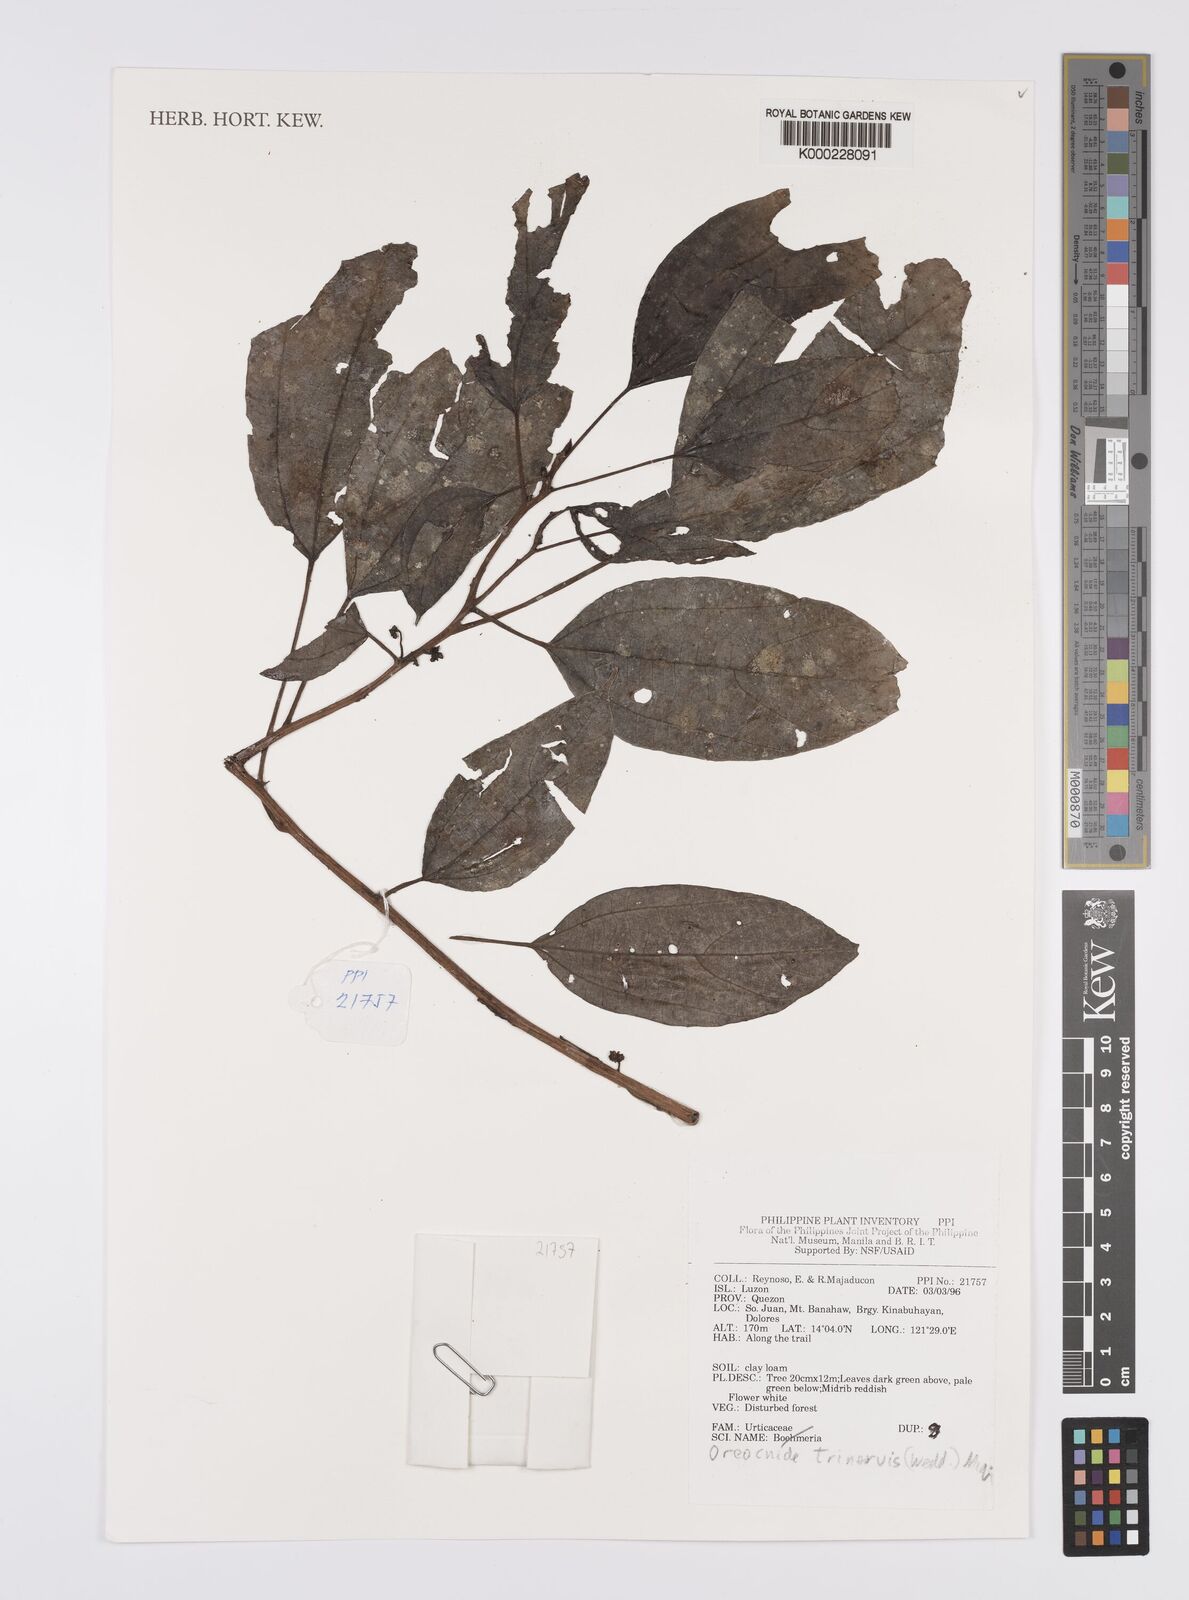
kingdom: Plantae
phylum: Tracheophyta
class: Magnoliopsida
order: Rosales
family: Urticaceae
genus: Oreocnide
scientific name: Oreocnide
